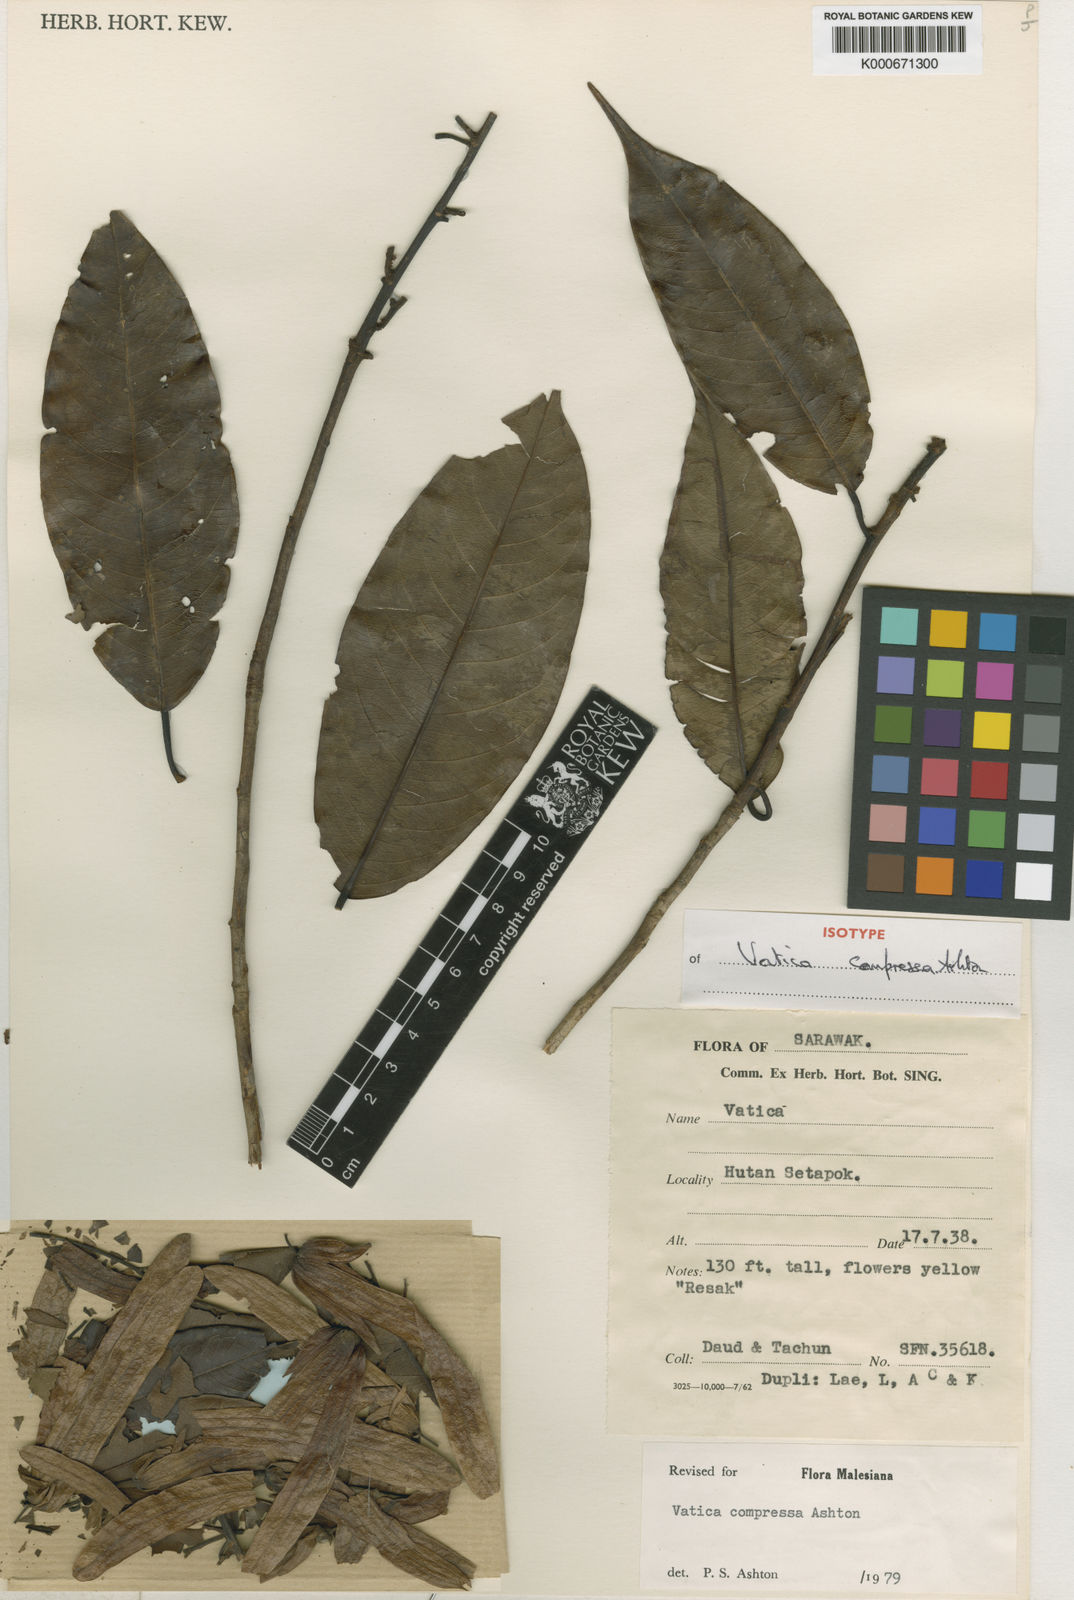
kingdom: Plantae
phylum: Tracheophyta
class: Magnoliopsida
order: Malvales
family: Dipterocarpaceae
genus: Vatica
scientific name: Vatica compressa
